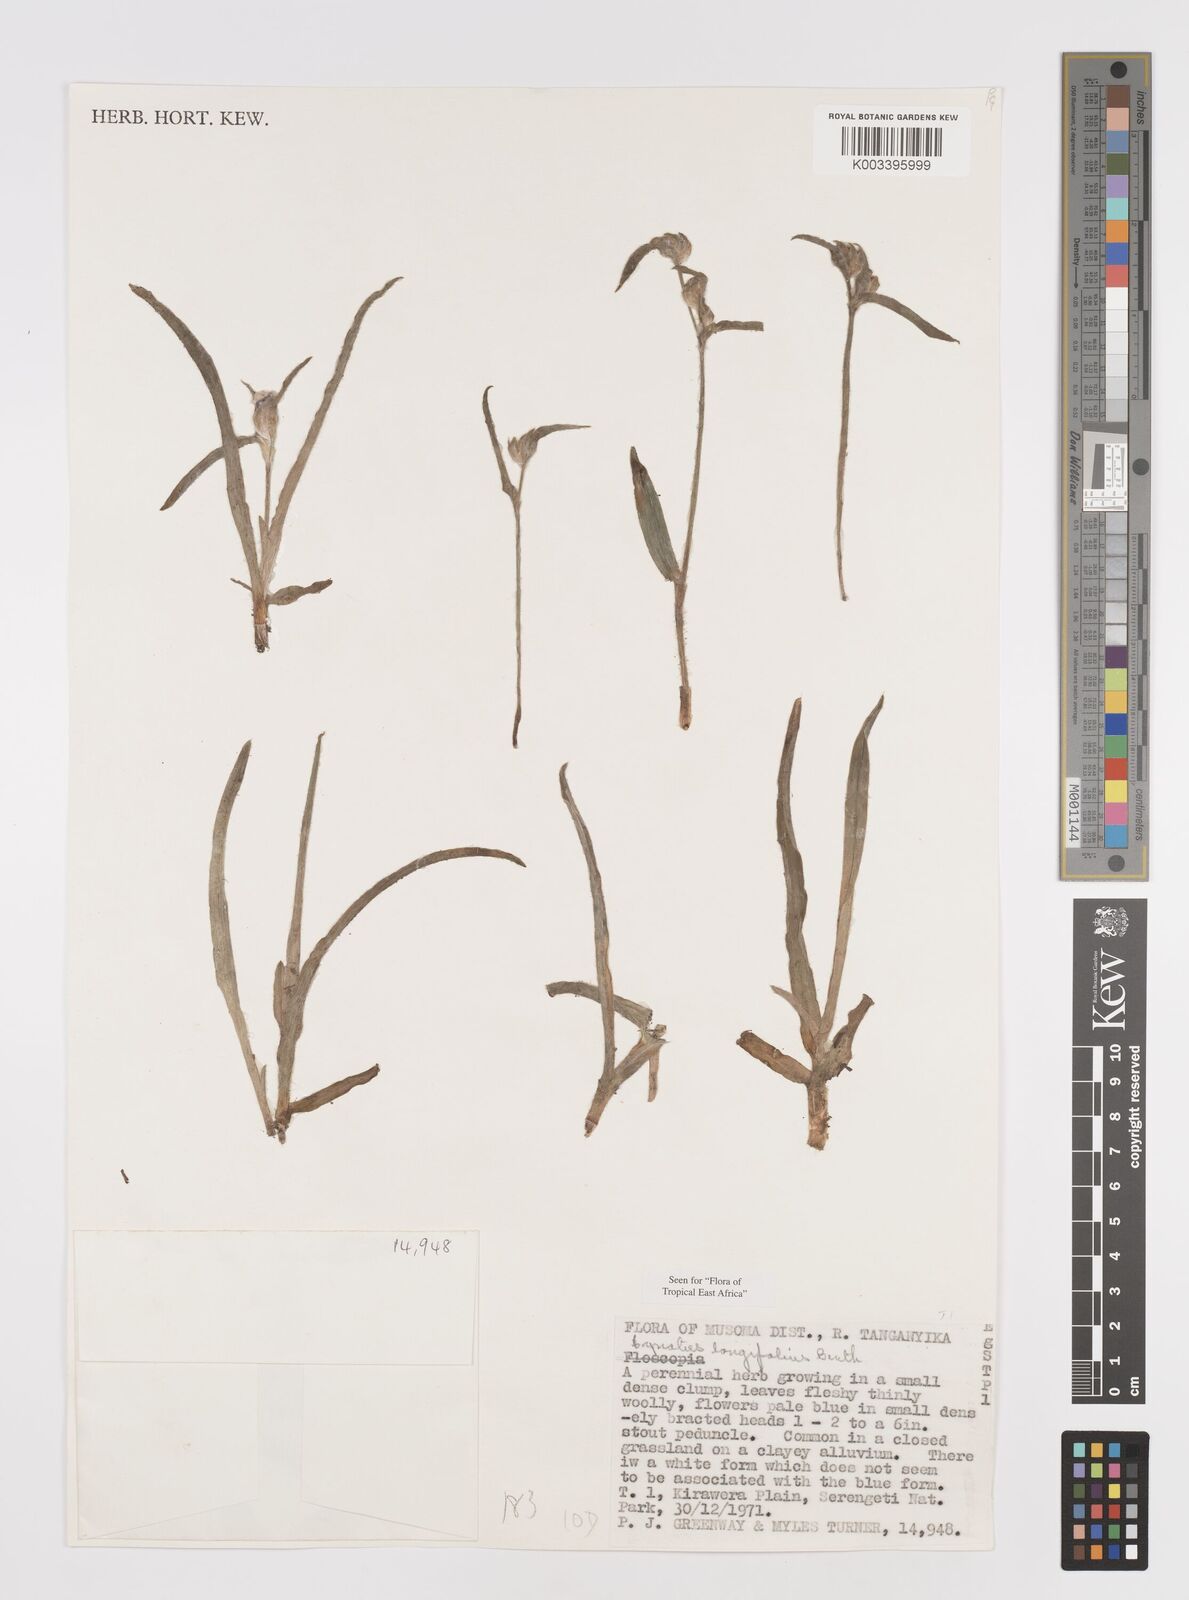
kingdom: Plantae
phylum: Tracheophyta
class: Liliopsida
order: Commelinales
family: Commelinaceae
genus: Cyanotis
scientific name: Cyanotis longifolia
